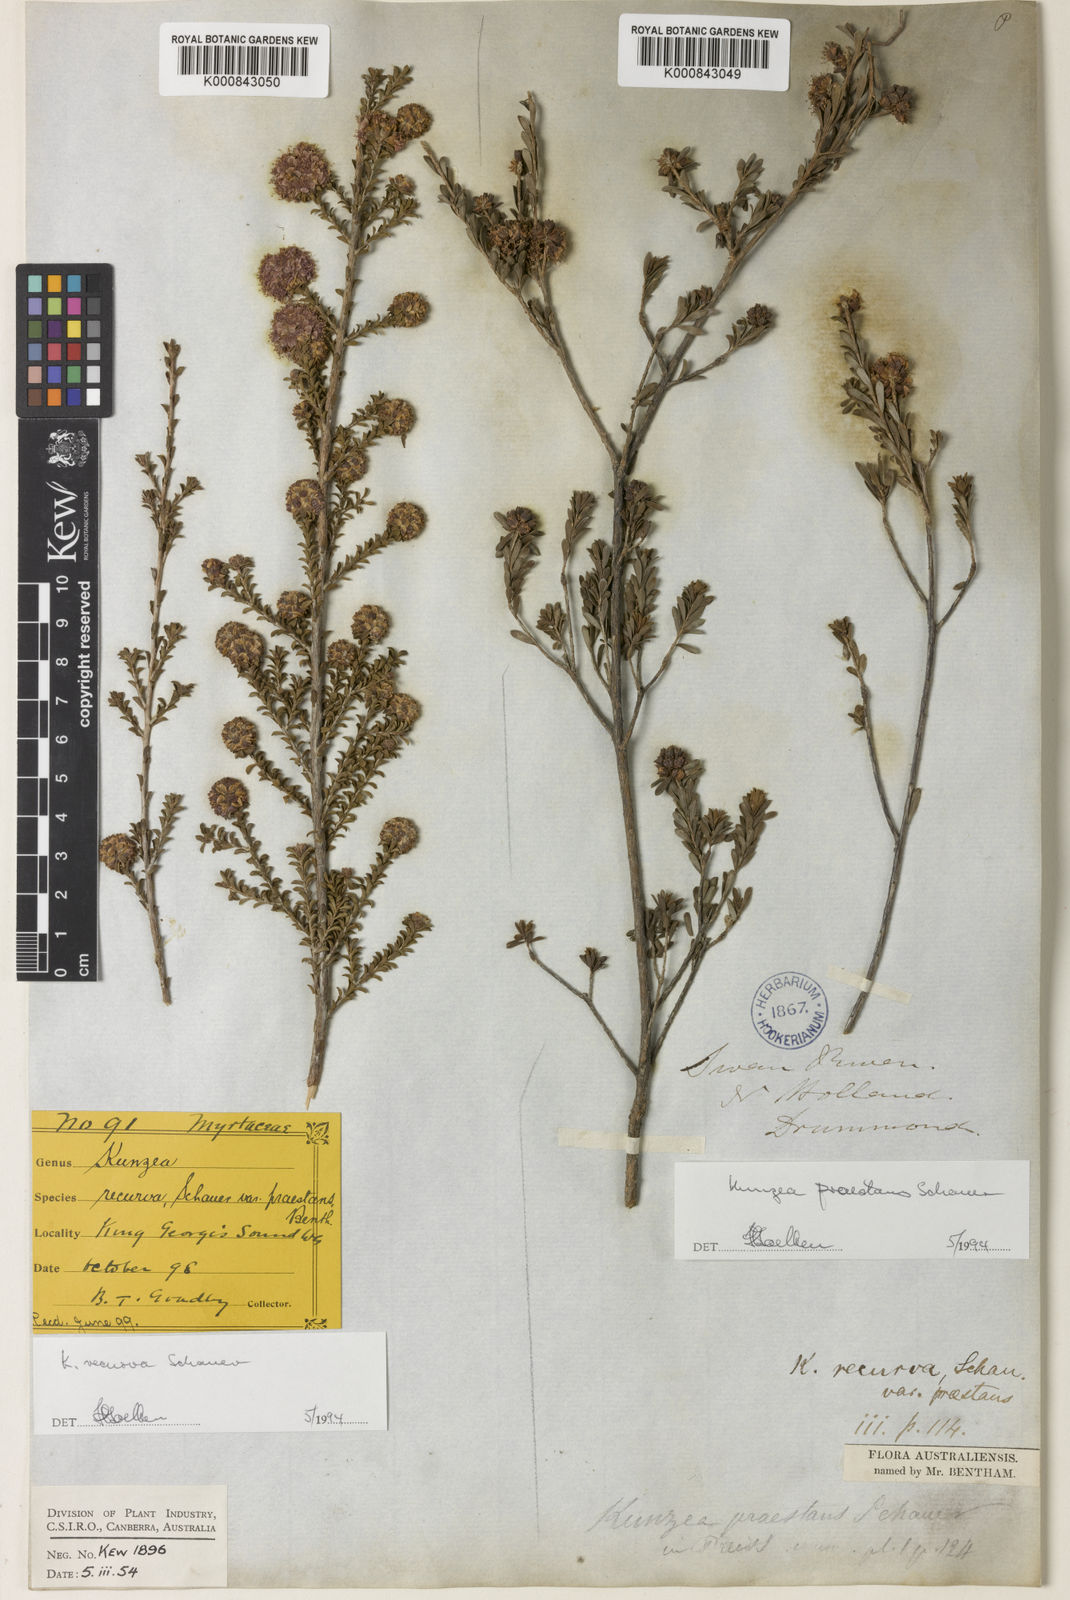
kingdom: Plantae
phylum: Tracheophyta
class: Magnoliopsida
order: Myrtales
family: Myrtaceae
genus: Kunzea
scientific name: Kunzea praestans
